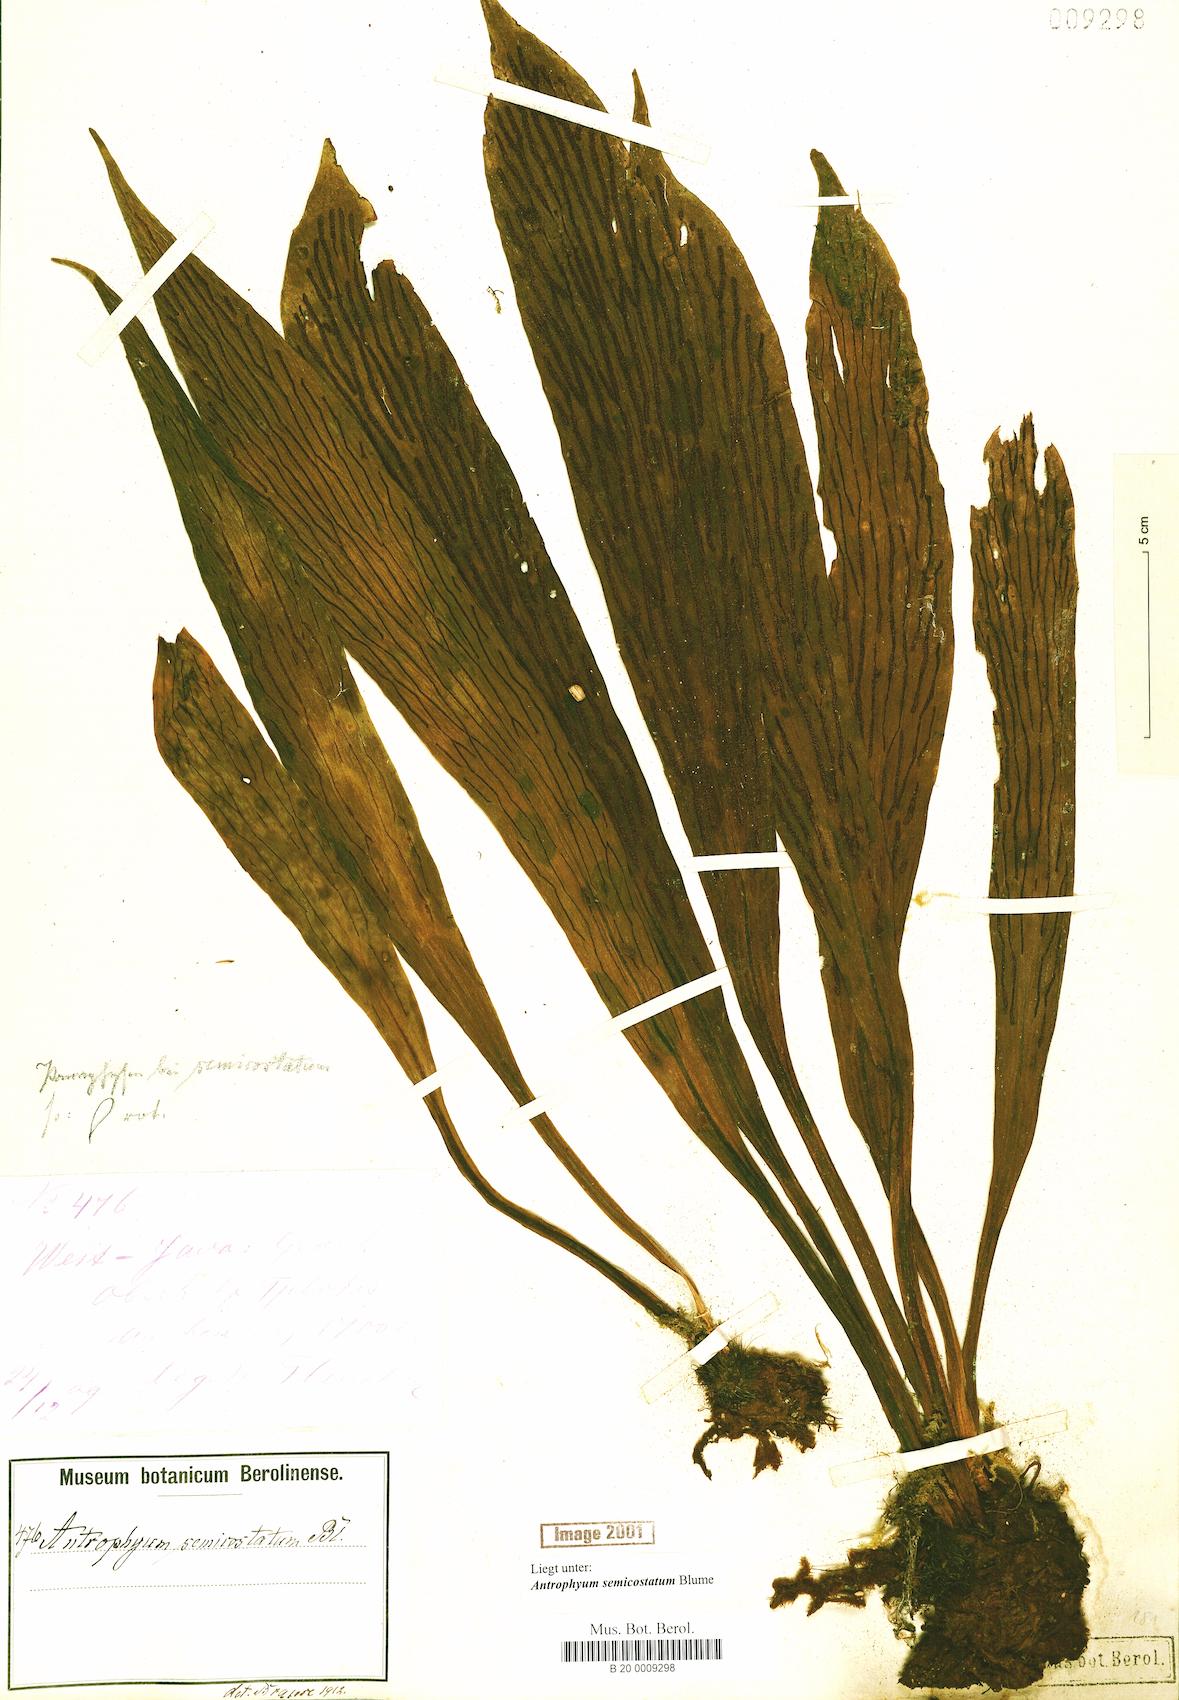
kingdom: Plantae
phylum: Tracheophyta
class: Polypodiopsida
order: Polypodiales
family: Pteridaceae
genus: Antrophyum
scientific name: Antrophyum semicostatum
